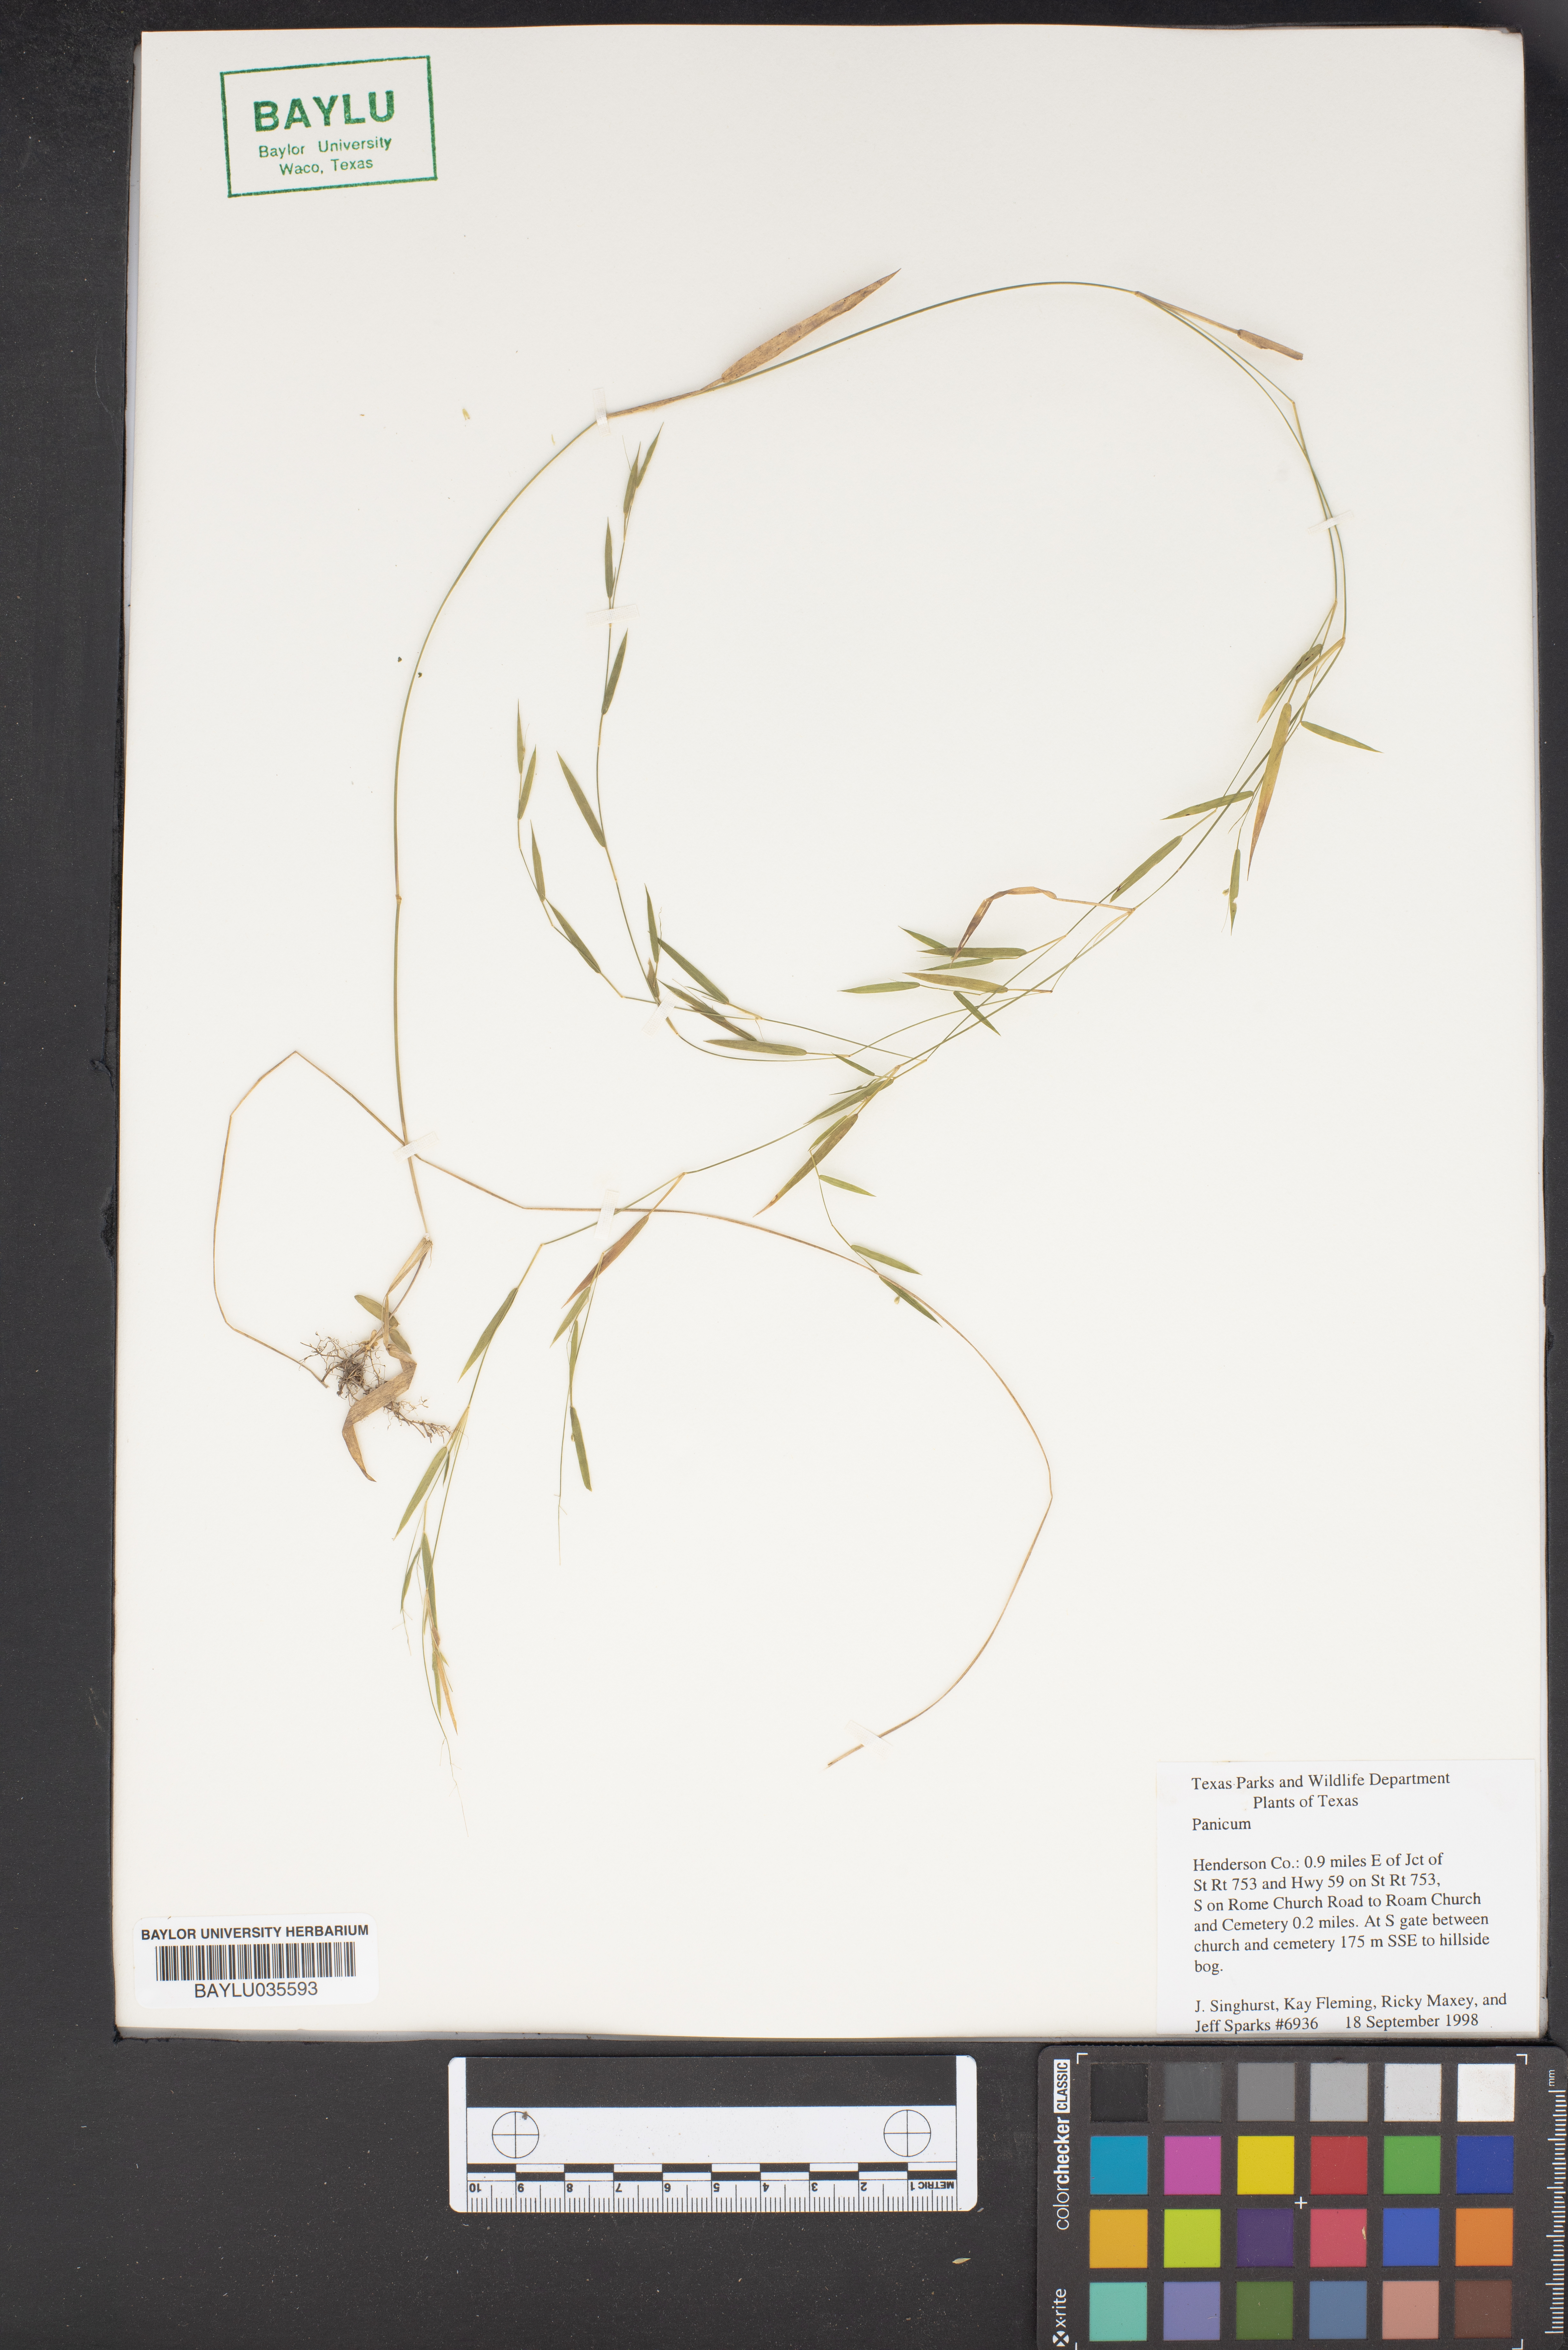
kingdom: Plantae
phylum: Tracheophyta
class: Liliopsida
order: Poales
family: Poaceae
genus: Panicum
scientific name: Panicum
